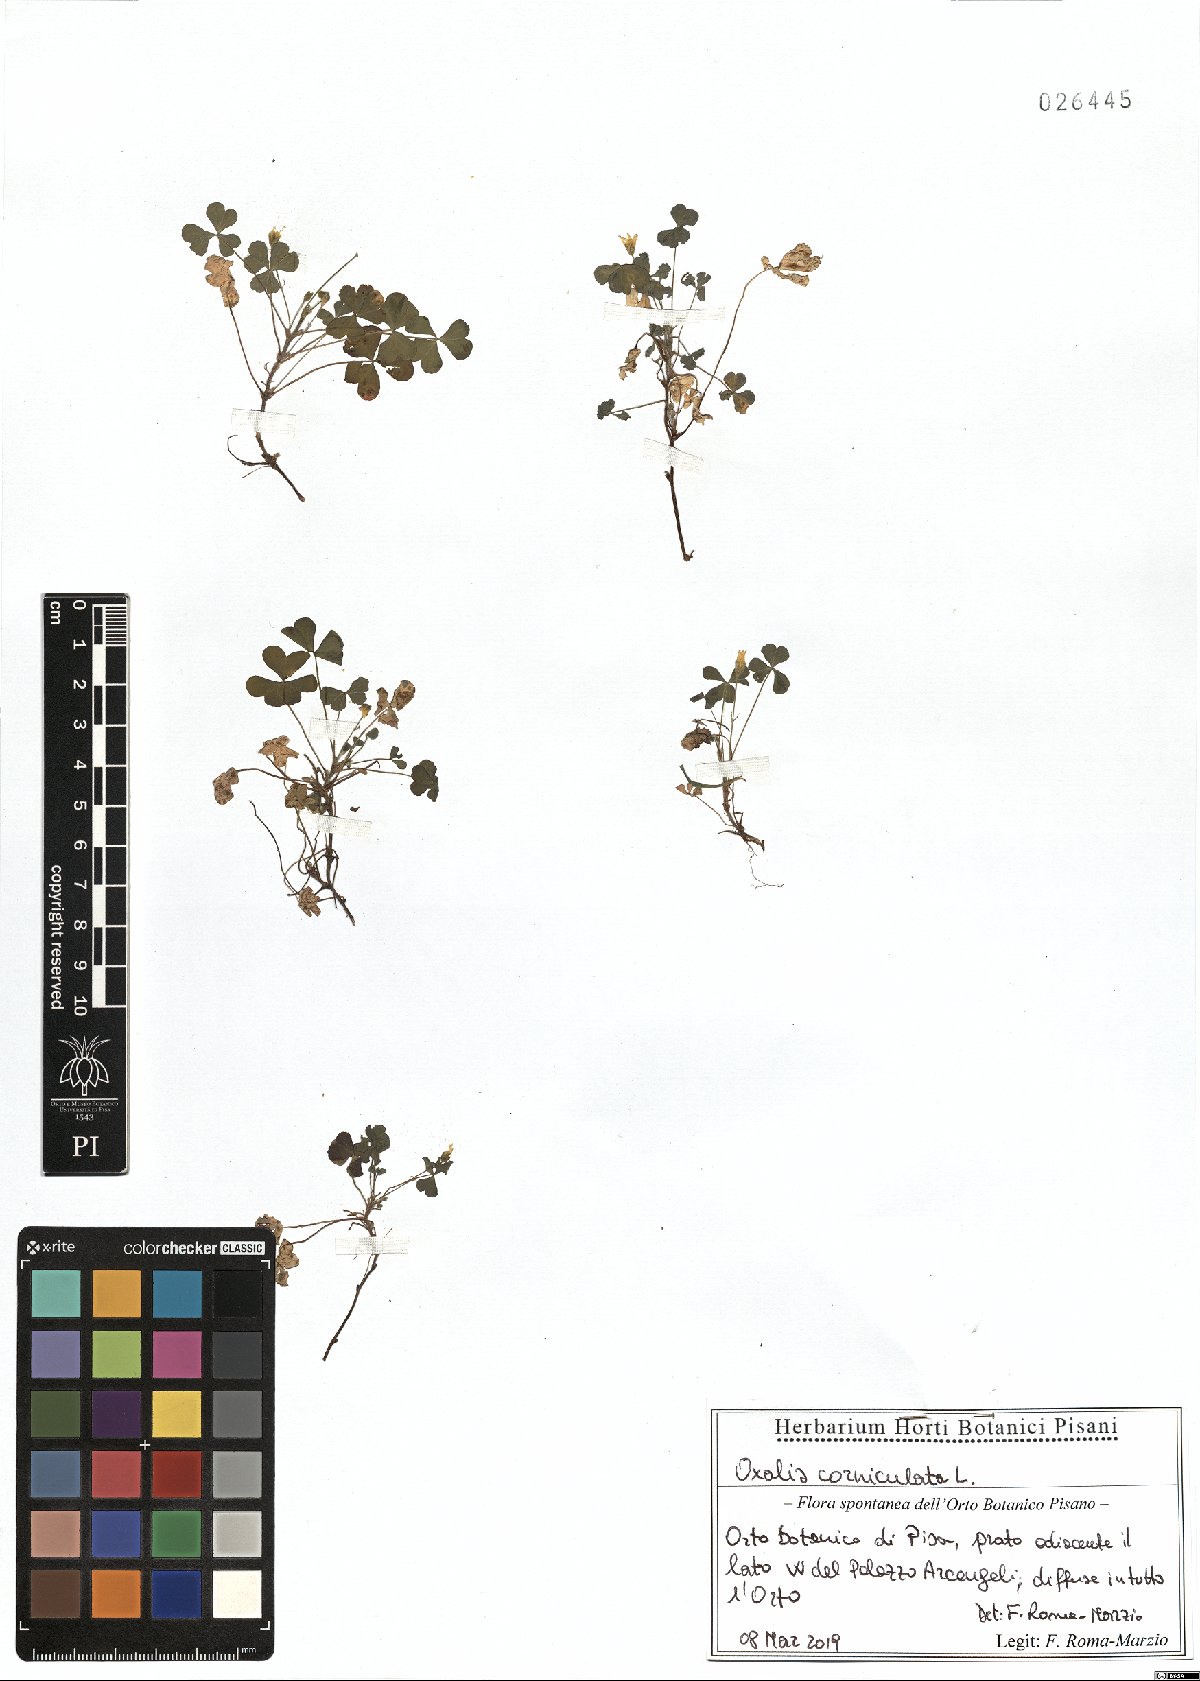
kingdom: Plantae
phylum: Tracheophyta
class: Magnoliopsida
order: Oxalidales
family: Oxalidaceae
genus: Oxalis
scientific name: Oxalis corniculata
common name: Procumbent yellow-sorrel
